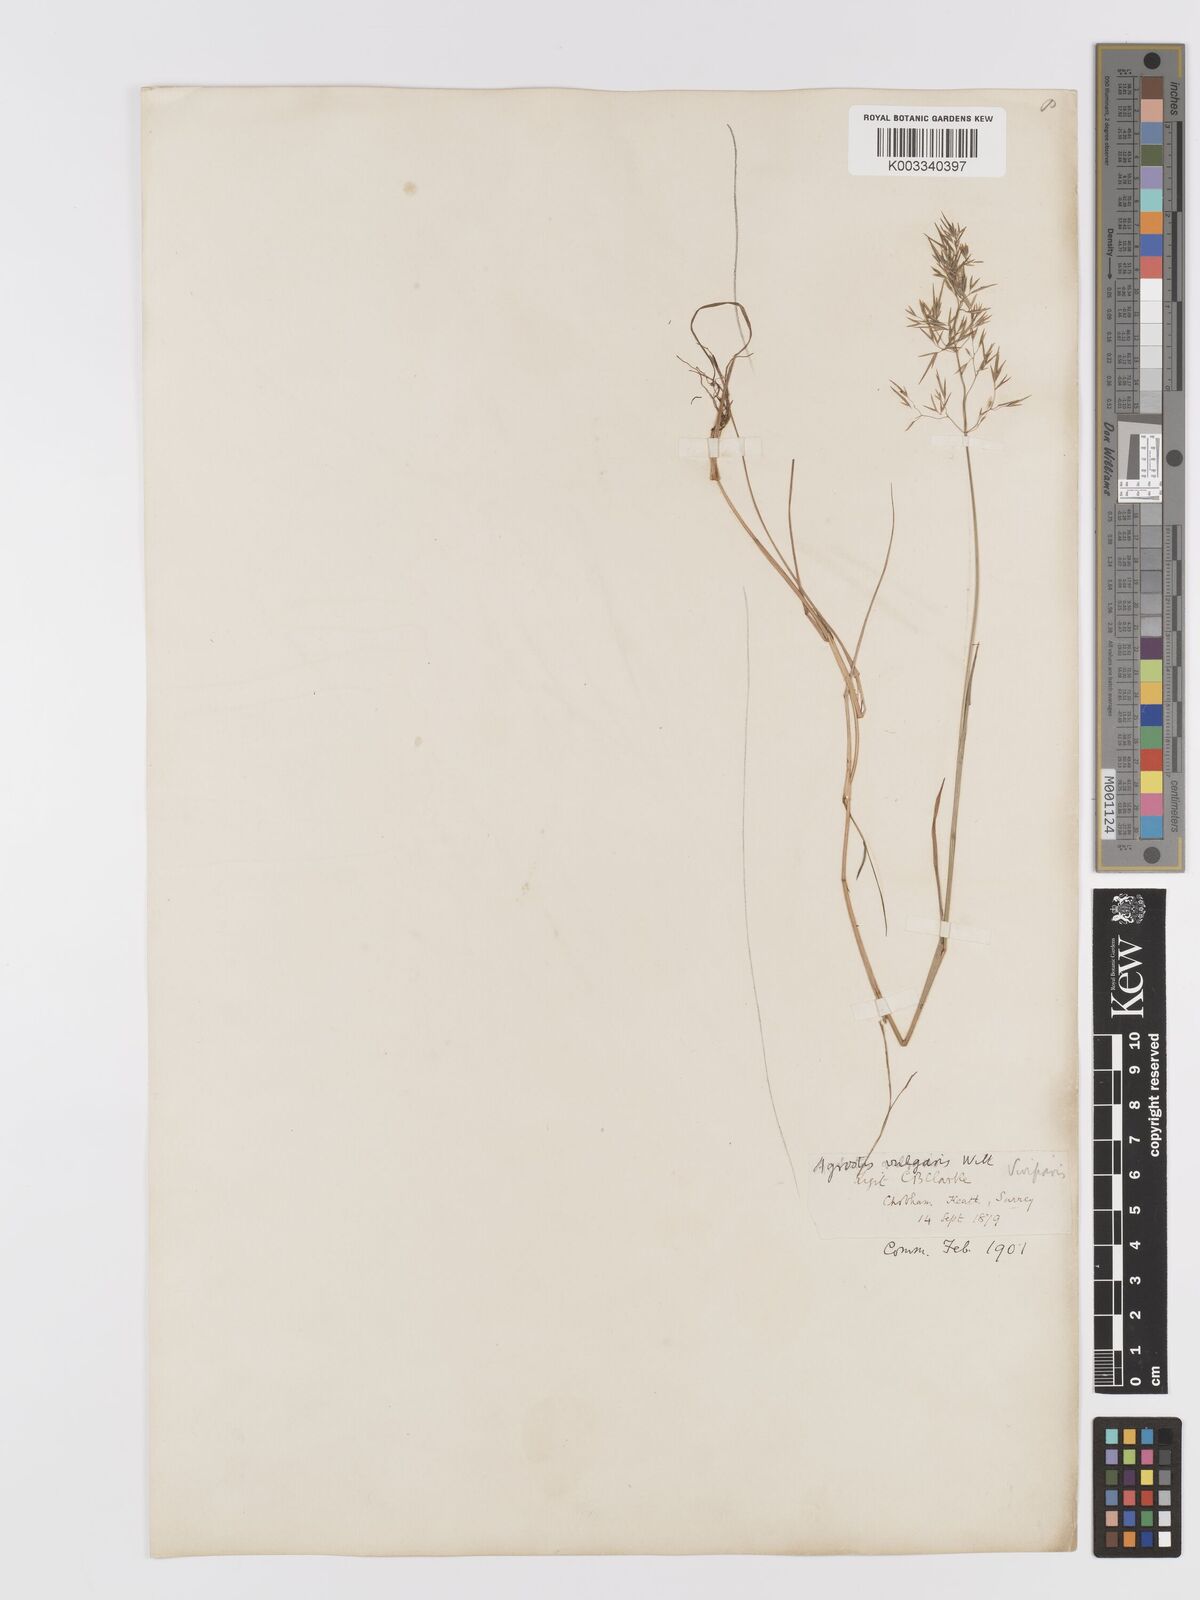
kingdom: Plantae
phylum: Tracheophyta
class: Liliopsida
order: Poales
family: Poaceae
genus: Agrostis
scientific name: Agrostis capillaris
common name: Colonial bentgrass
